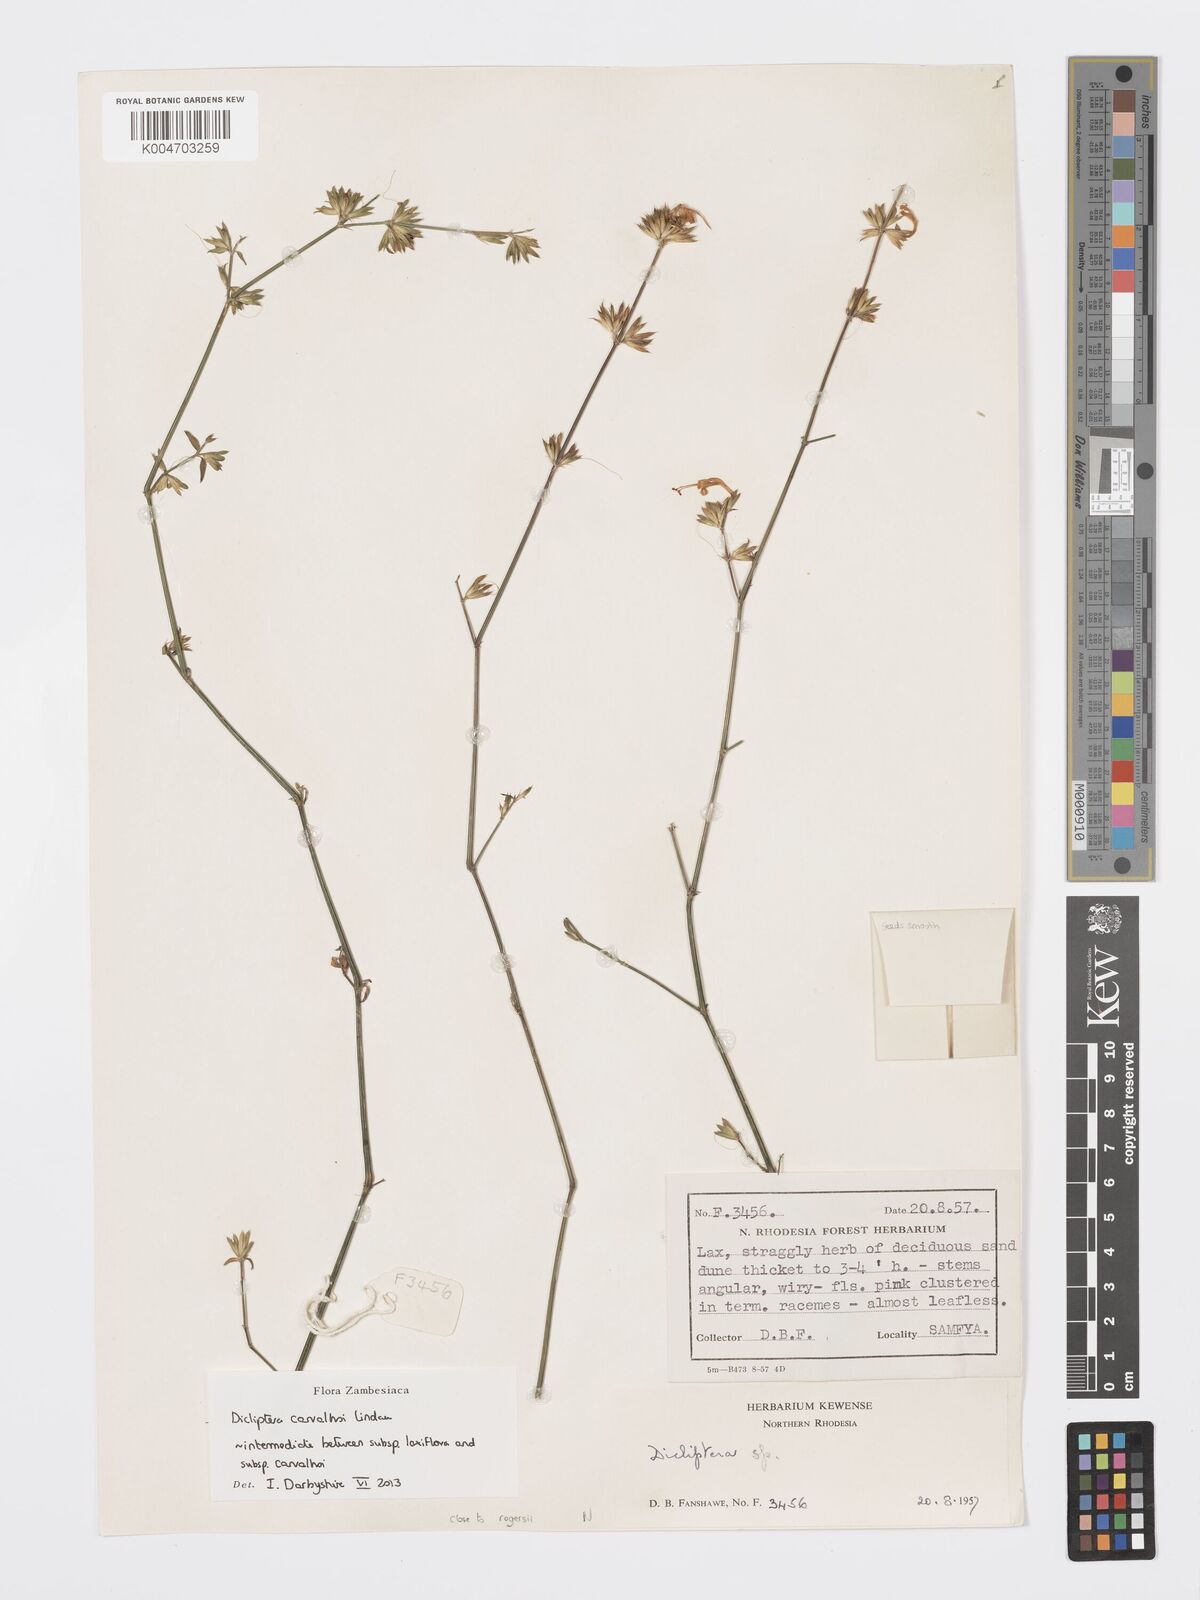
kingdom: Plantae
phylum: Tracheophyta
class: Magnoliopsida
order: Lamiales
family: Acanthaceae
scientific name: Acanthaceae
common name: Acanthaceae
